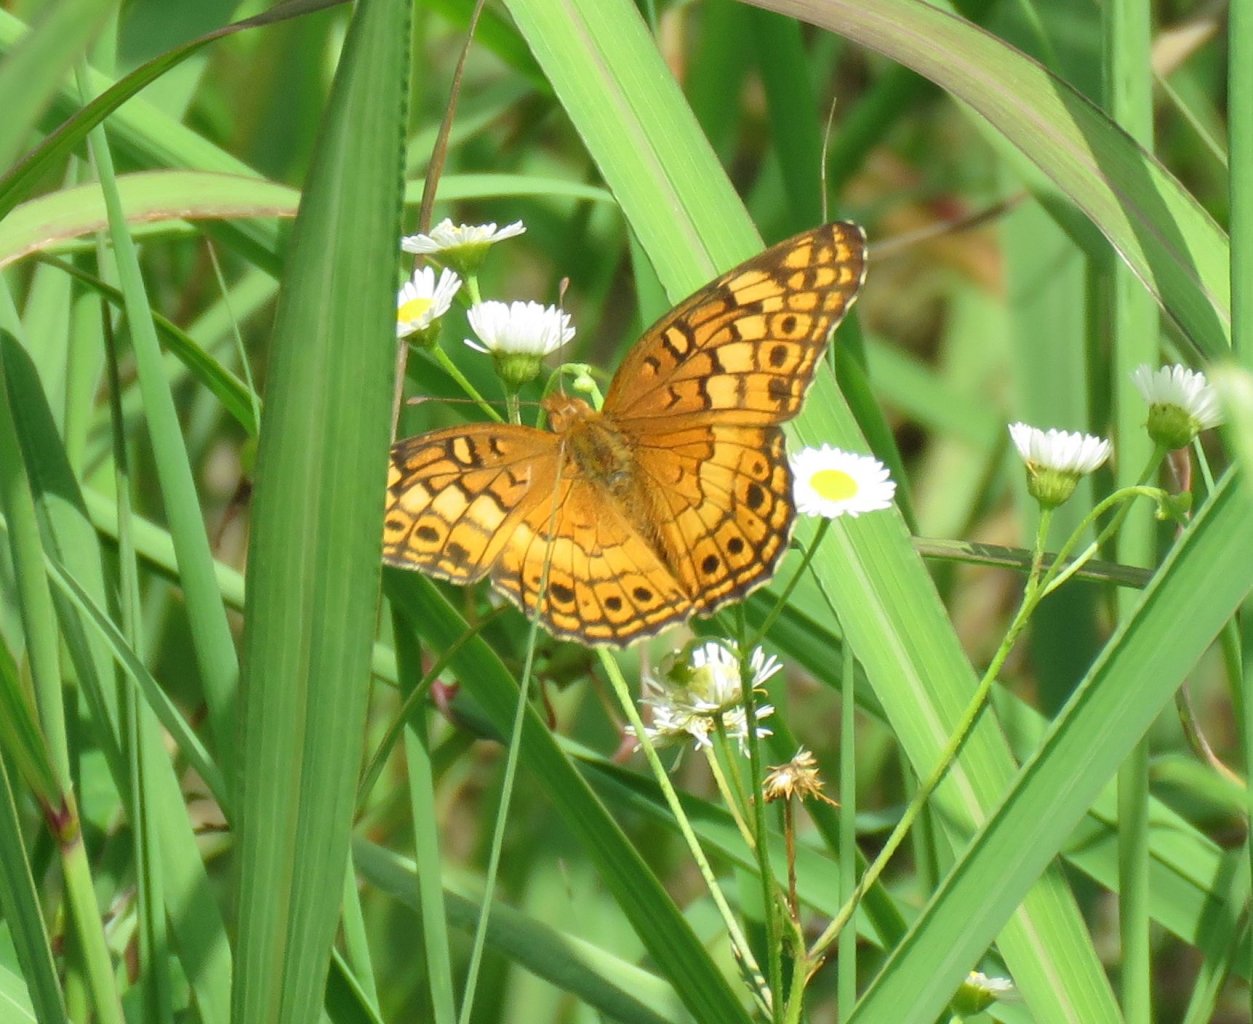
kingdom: Animalia
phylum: Arthropoda
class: Insecta
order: Lepidoptera
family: Nymphalidae
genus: Euptoieta
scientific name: Euptoieta claudia
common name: Variegated Fritillary
